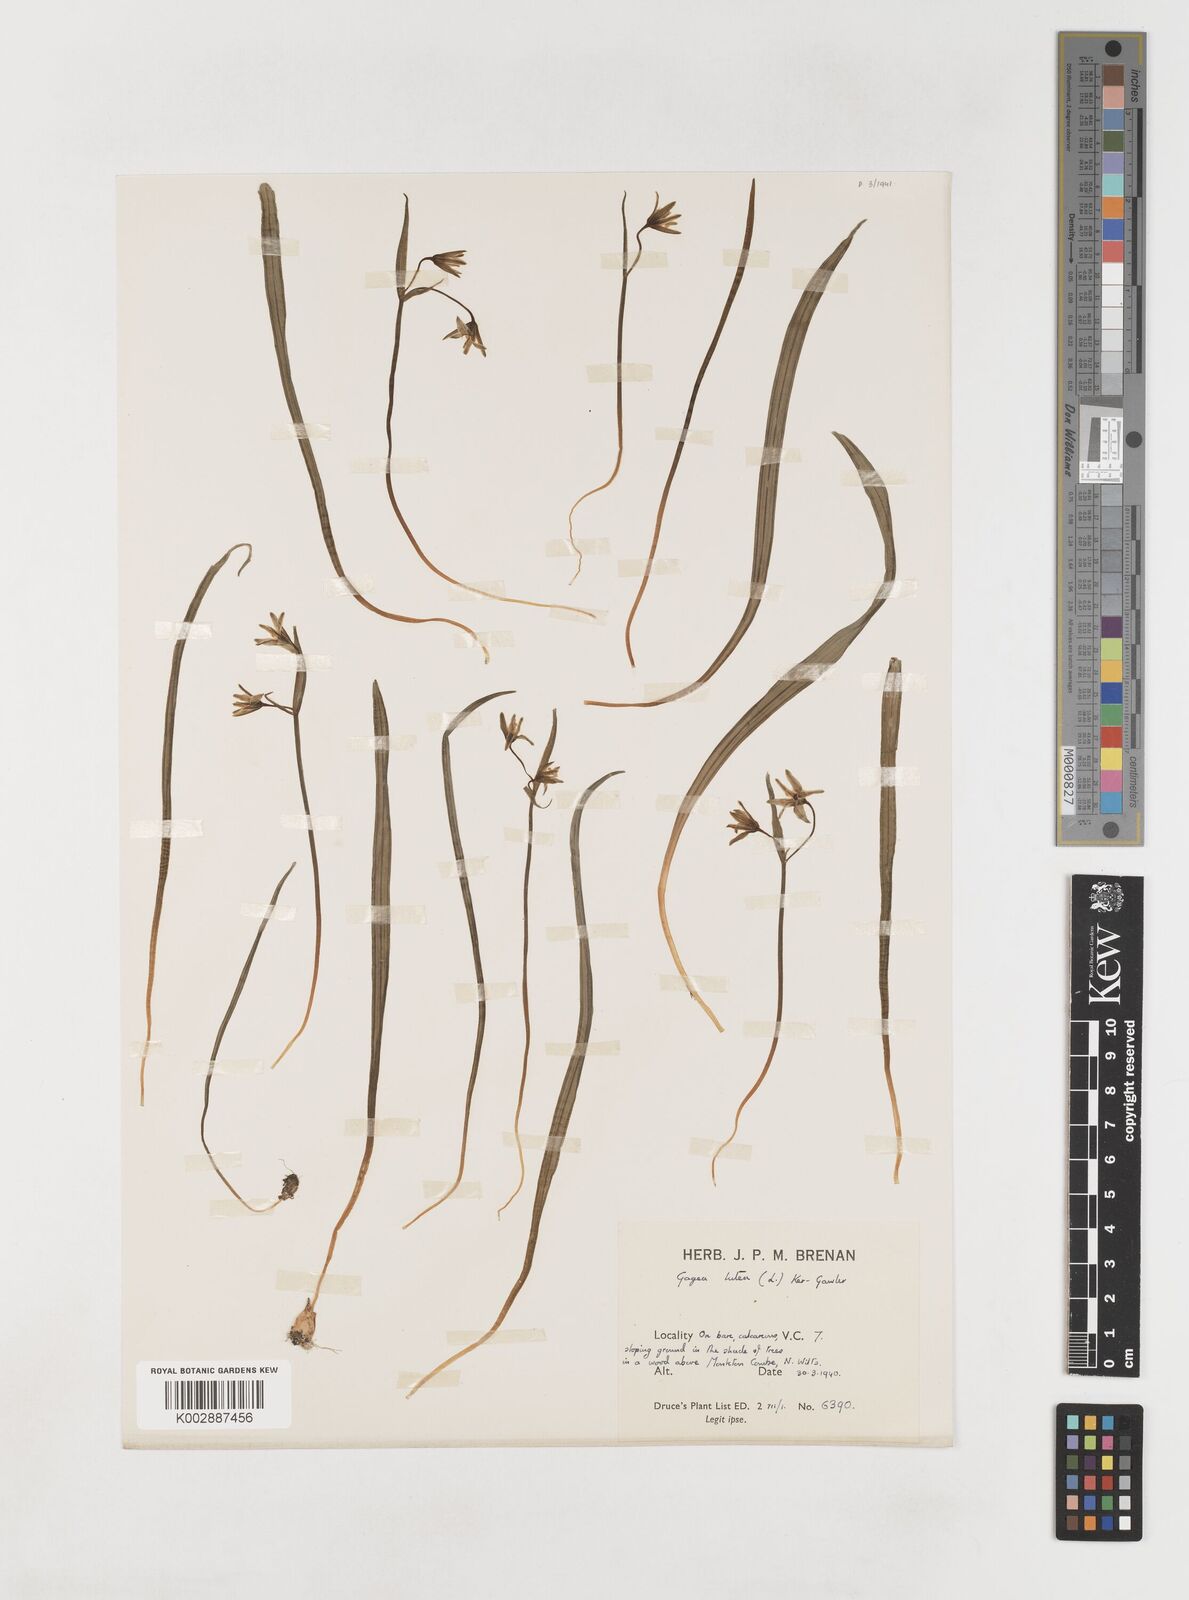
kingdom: Plantae
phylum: Tracheophyta
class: Liliopsida
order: Liliales
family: Liliaceae
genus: Gagea
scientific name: Gagea lutea
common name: Yellow star-of-bethlehem
